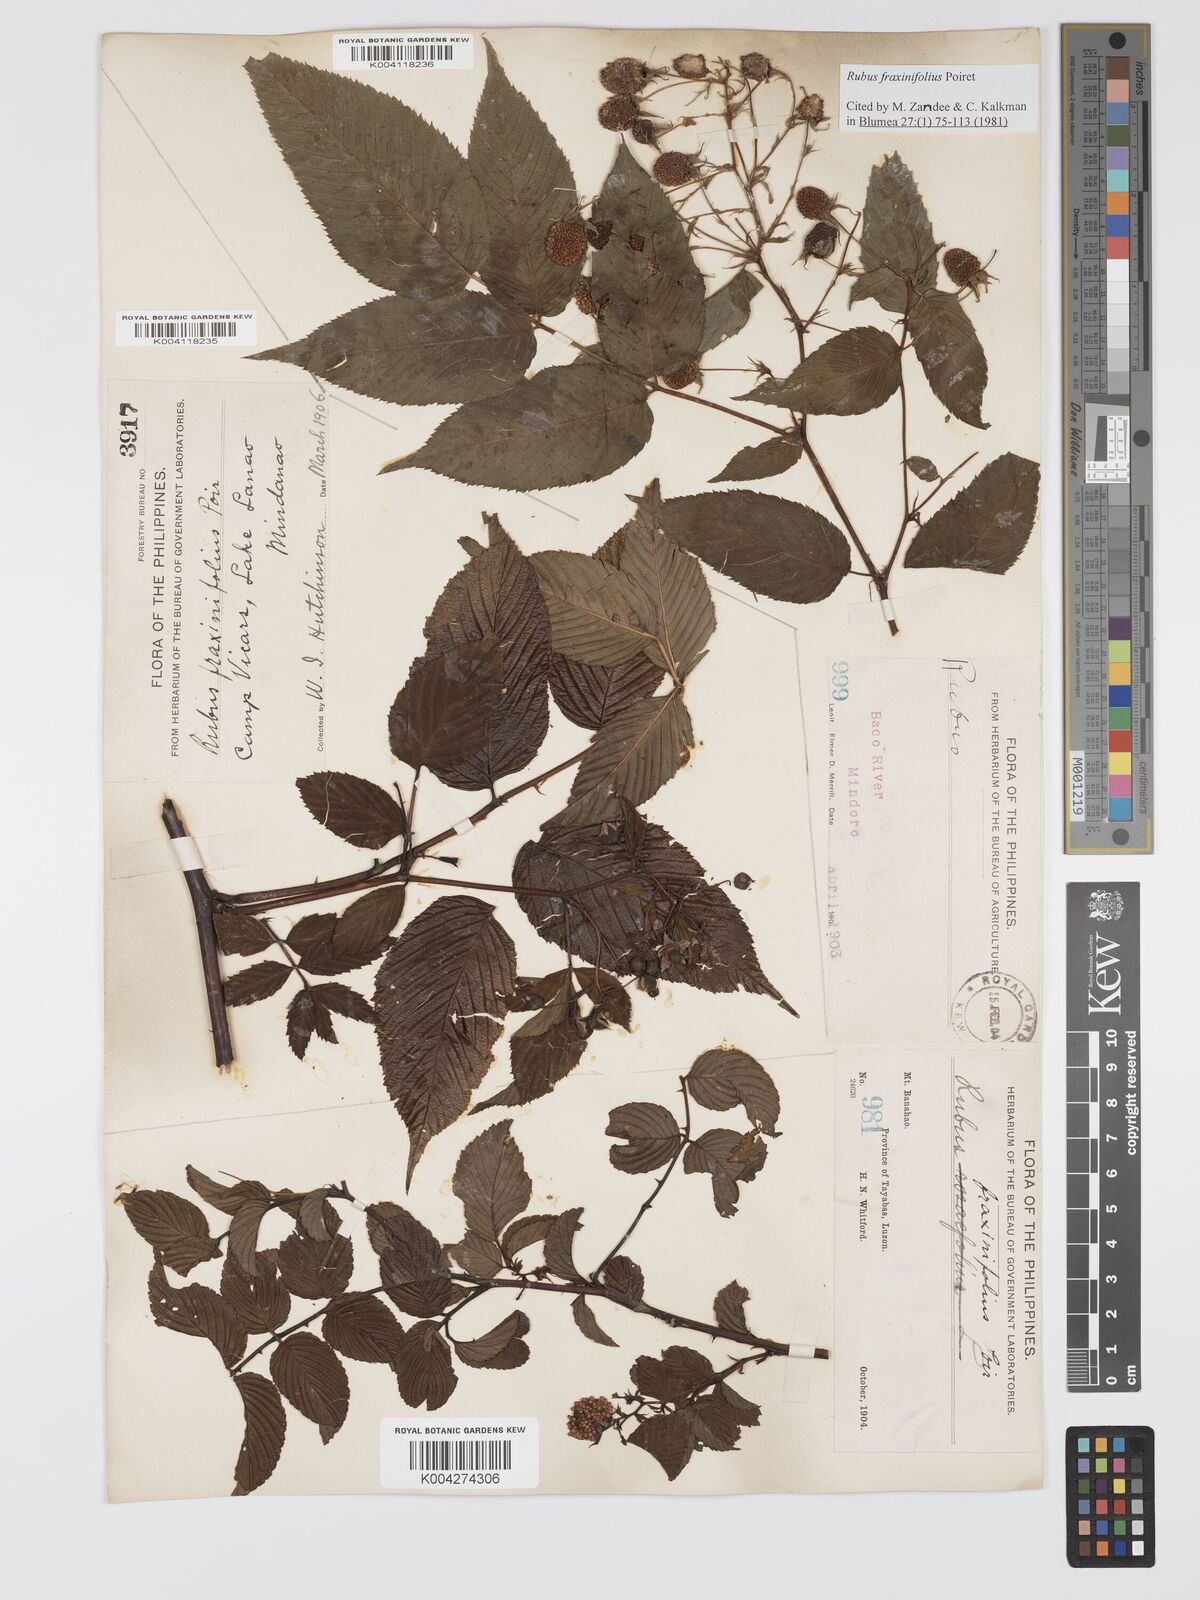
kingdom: Plantae
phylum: Tracheophyta
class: Magnoliopsida
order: Rosales
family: Rosaceae
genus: Rubus
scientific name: Rubus fraxinifolius
